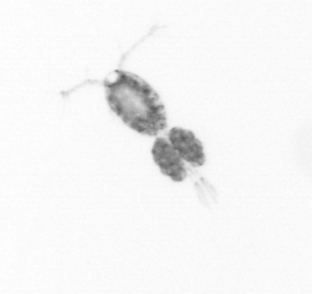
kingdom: Animalia
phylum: Arthropoda
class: Copepoda
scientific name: Copepoda
